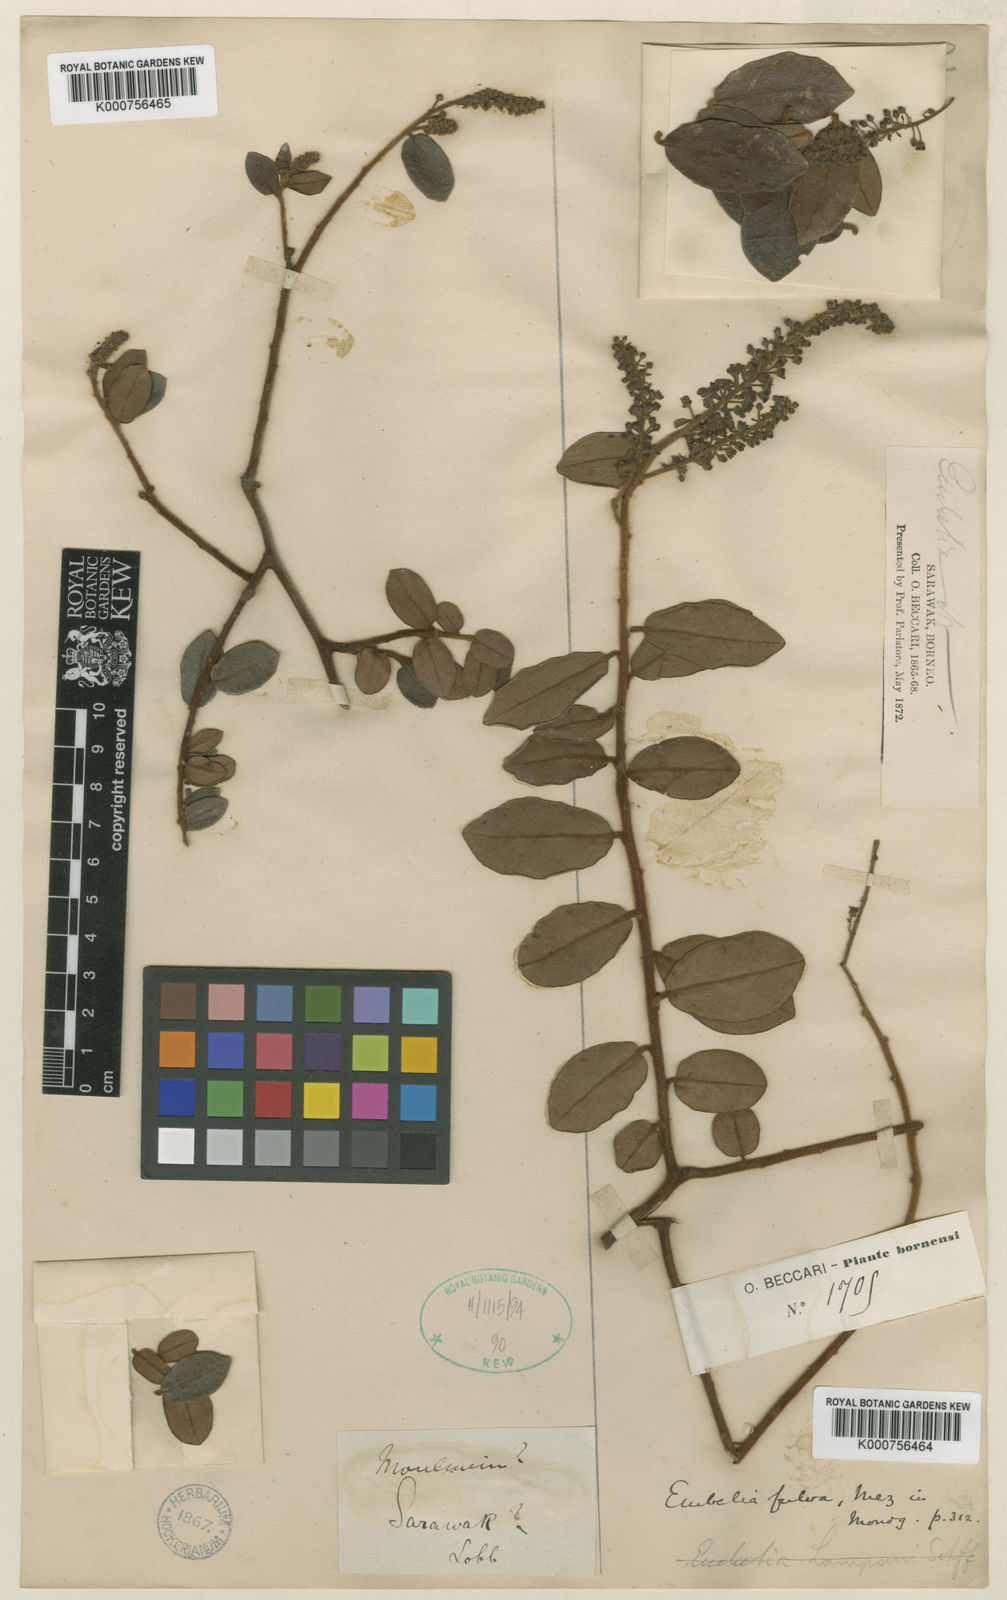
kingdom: Plantae
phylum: Tracheophyta
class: Magnoliopsida
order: Ericales
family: Primulaceae
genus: Grenacheria
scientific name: Grenacheria fulva
